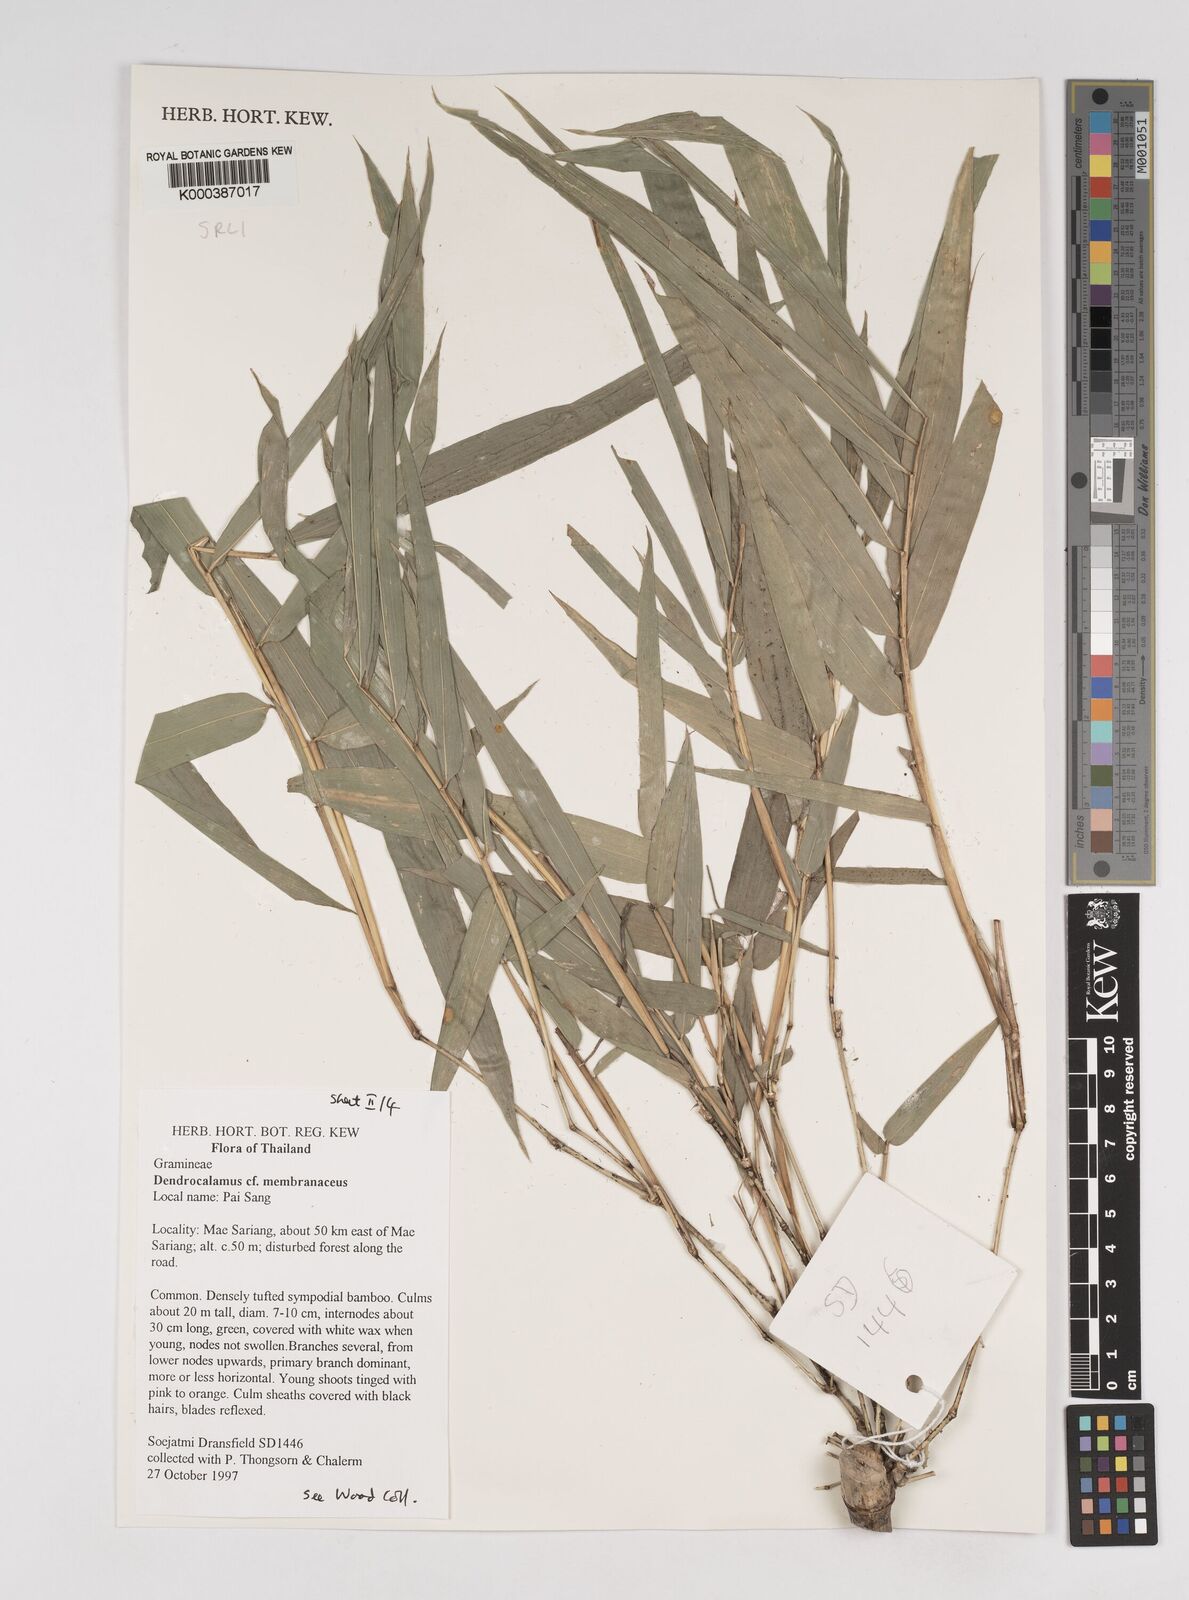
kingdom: Plantae
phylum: Tracheophyta
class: Liliopsida
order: Poales
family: Poaceae
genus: Dendrocalamus
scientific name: Dendrocalamus membranaceus
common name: White bamboo
